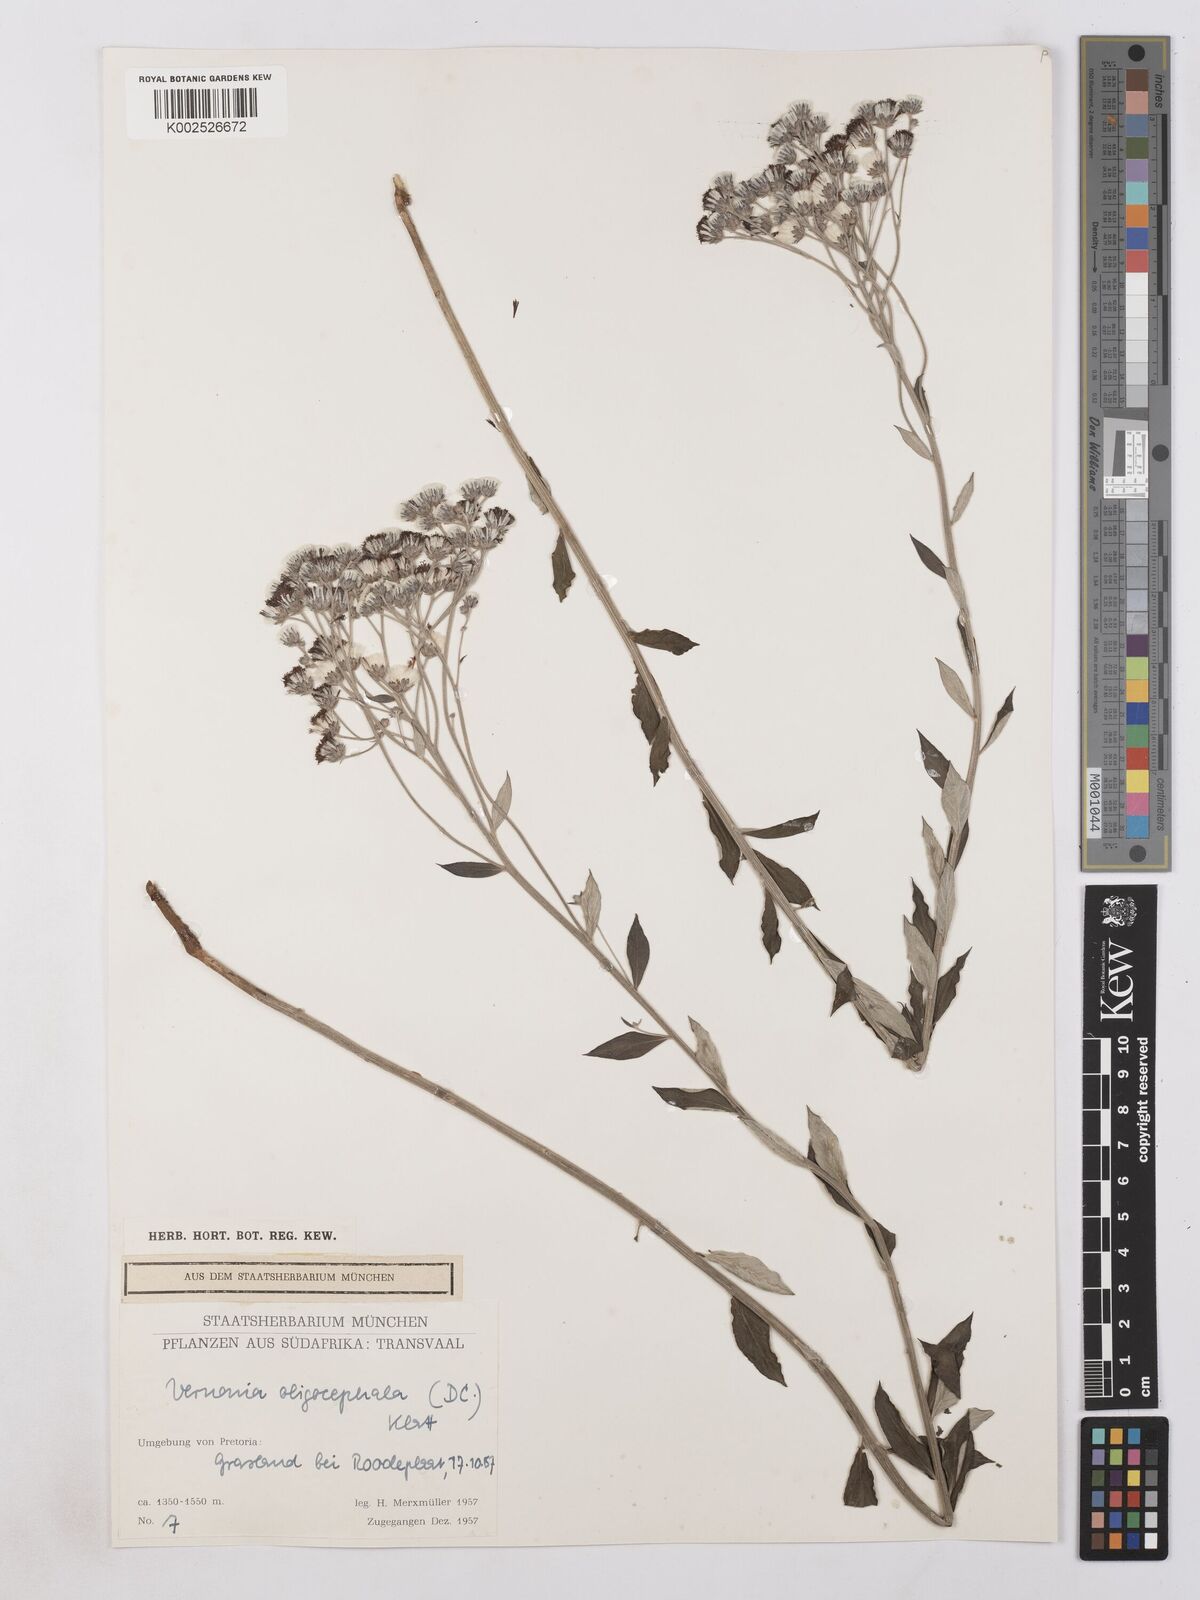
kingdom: Plantae
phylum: Tracheophyta
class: Magnoliopsida
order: Asterales
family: Asteraceae
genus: Hilliardiella
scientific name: Hilliardiella oligocephala
